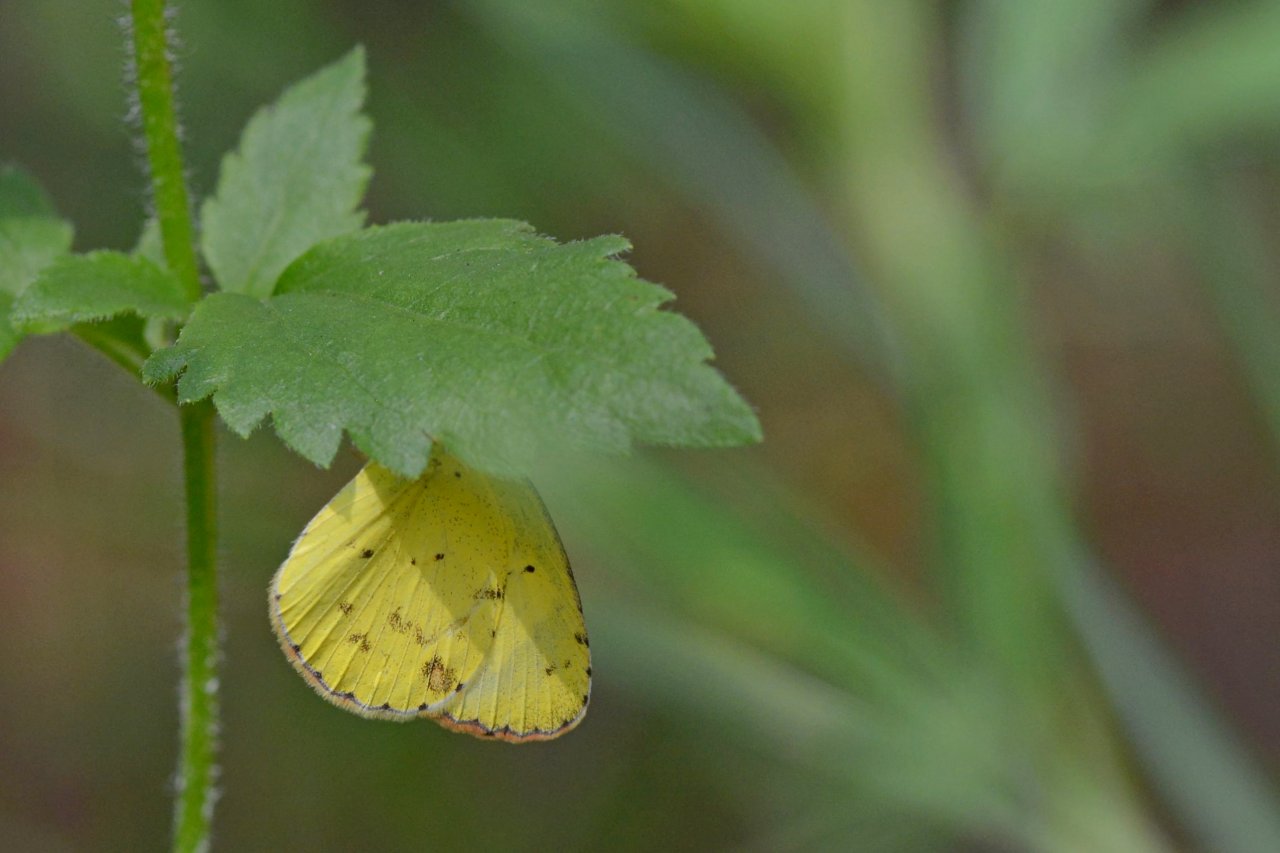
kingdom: Animalia
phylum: Arthropoda
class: Insecta
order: Lepidoptera
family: Pieridae
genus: Pyrisitia
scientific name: Pyrisitia lisa
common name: Little Yellow
